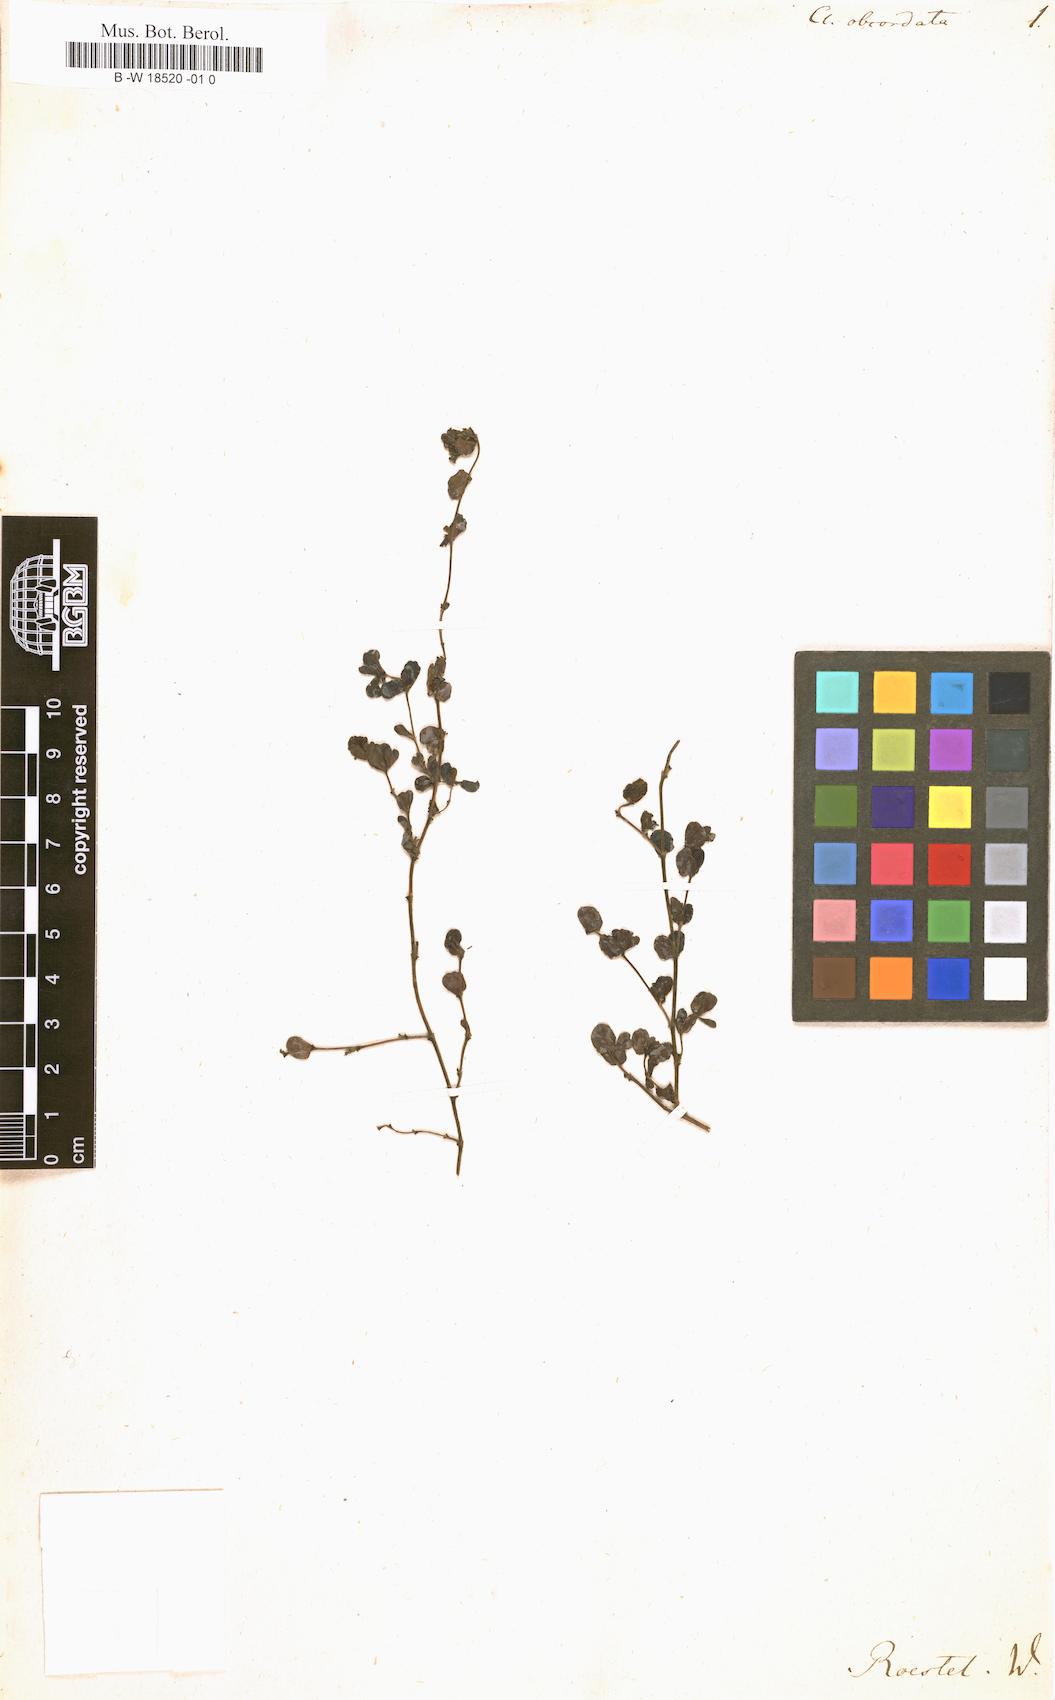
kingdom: Plantae
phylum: Tracheophyta
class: Magnoliopsida
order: Ranunculales
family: Ranunculaceae
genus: Hamadryas
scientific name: Hamadryas magellanica
